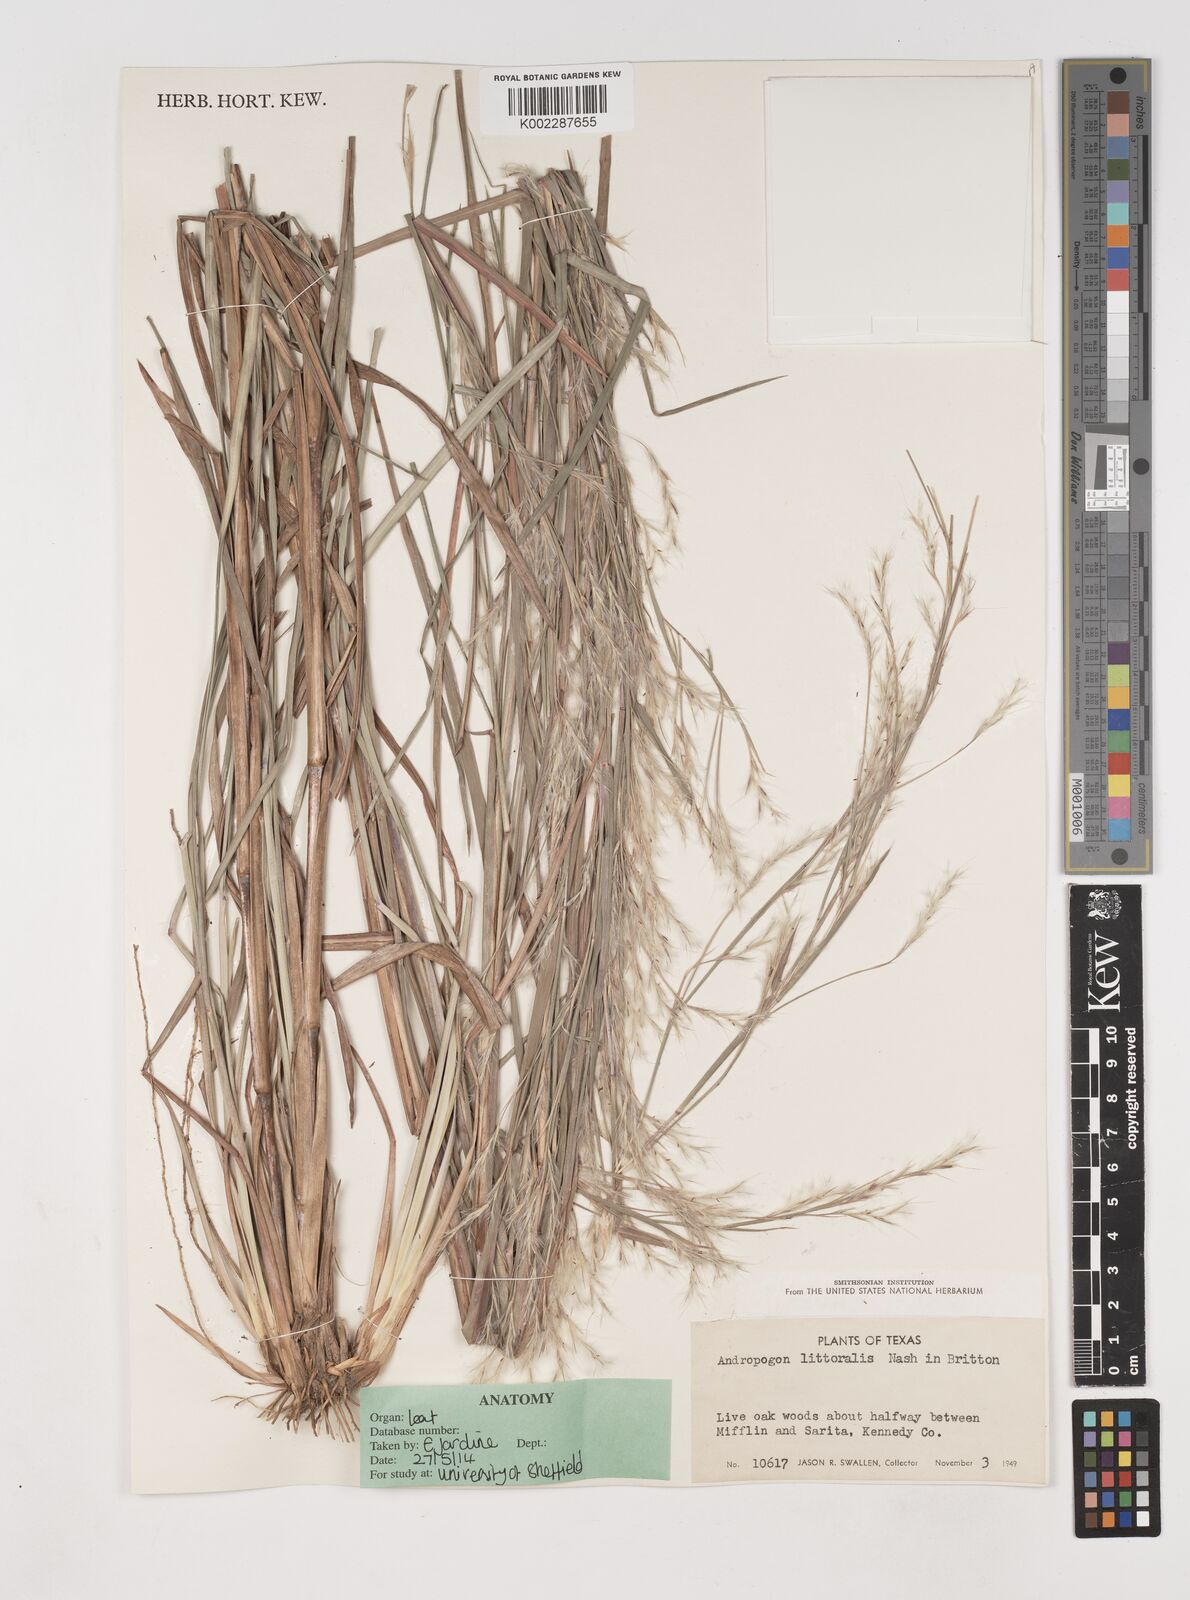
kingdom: Plantae
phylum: Tracheophyta
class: Liliopsida
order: Poales
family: Poaceae
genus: Schizachyrium
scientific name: Schizachyrium scoparium
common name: Little bluestem
